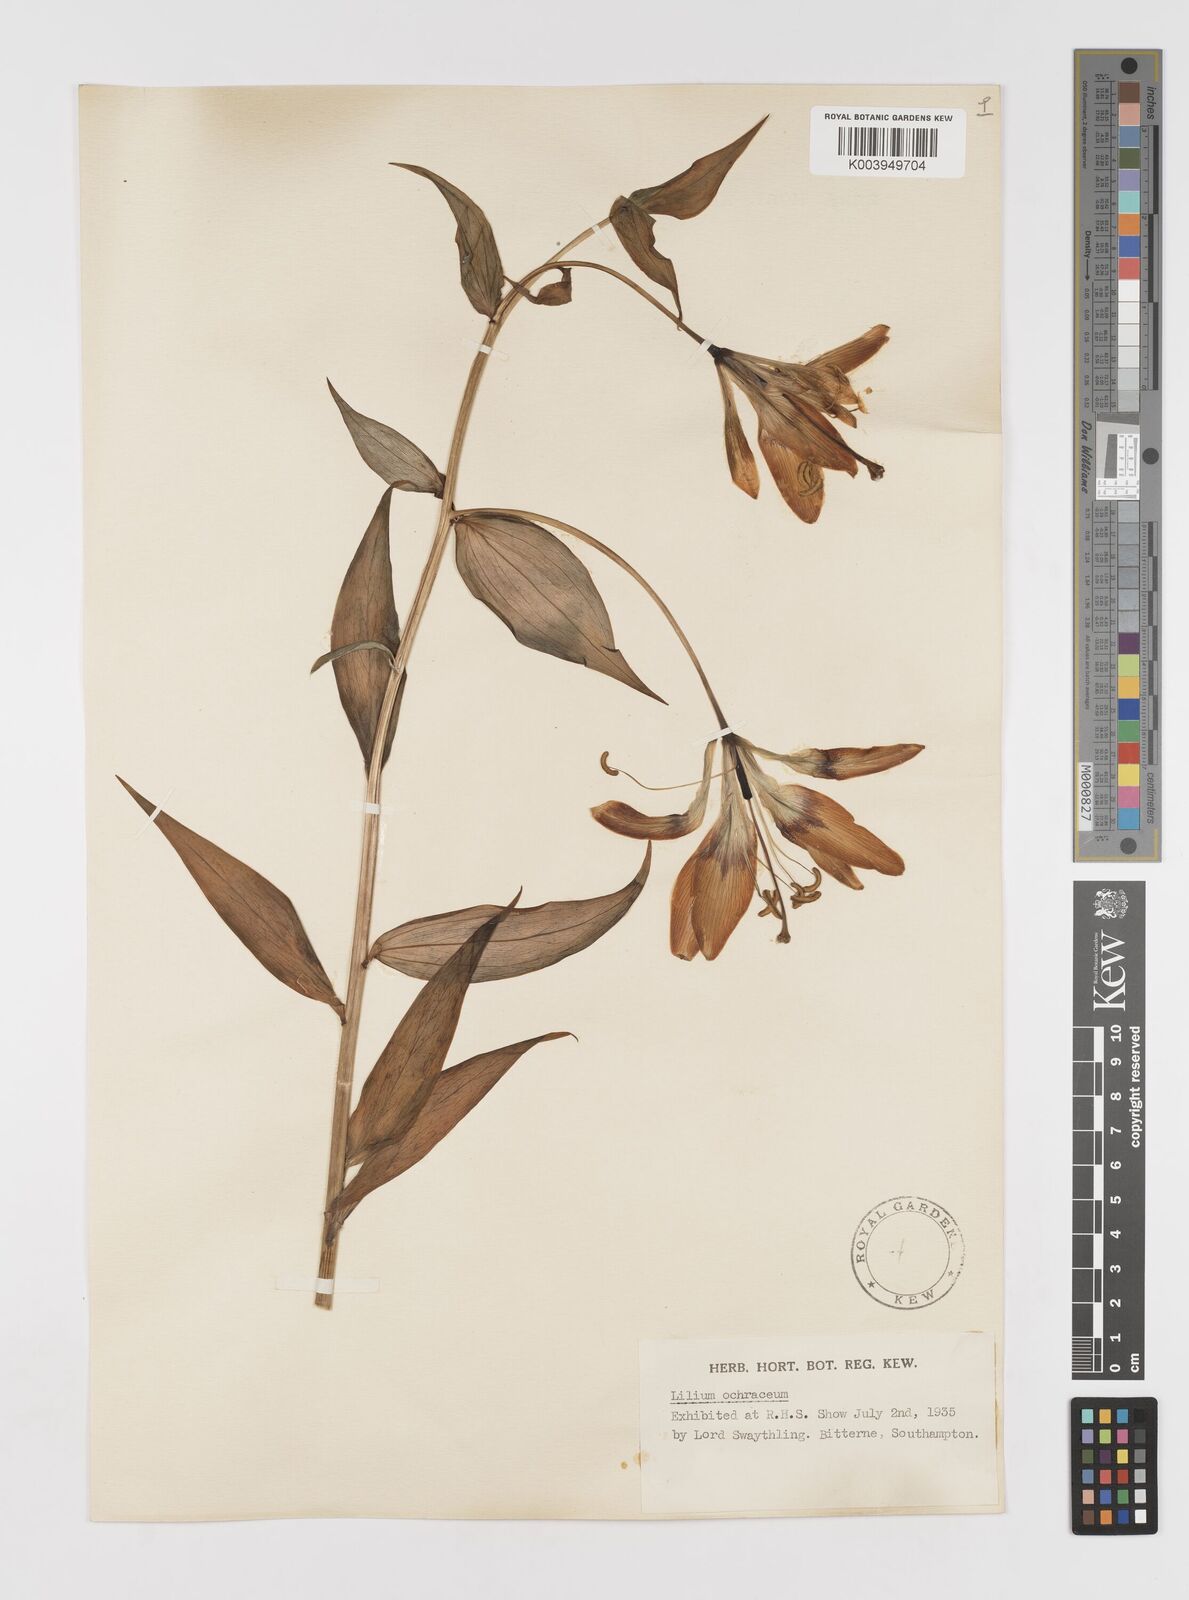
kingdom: Plantae
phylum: Tracheophyta
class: Liliopsida
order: Liliales
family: Liliaceae
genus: Lilium
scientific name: Lilium primulinum
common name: Ochre lily
